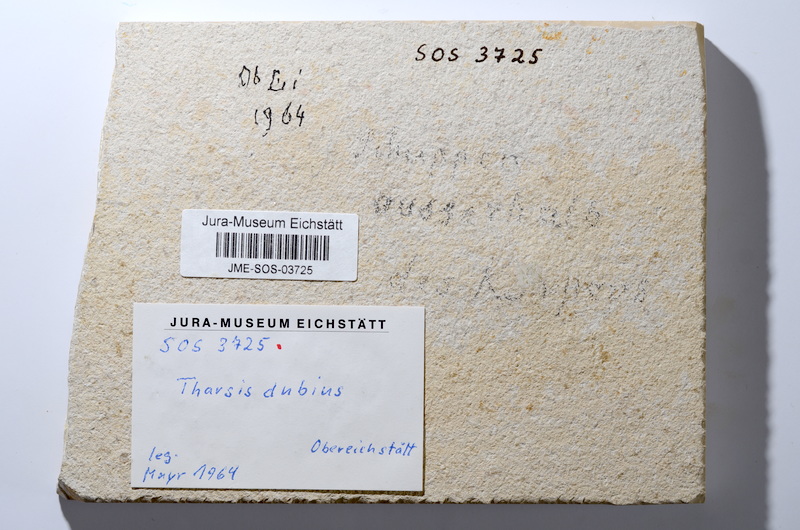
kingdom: Animalia
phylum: Chordata
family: Ascalaboidae
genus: Tharsis
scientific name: Tharsis dubius
